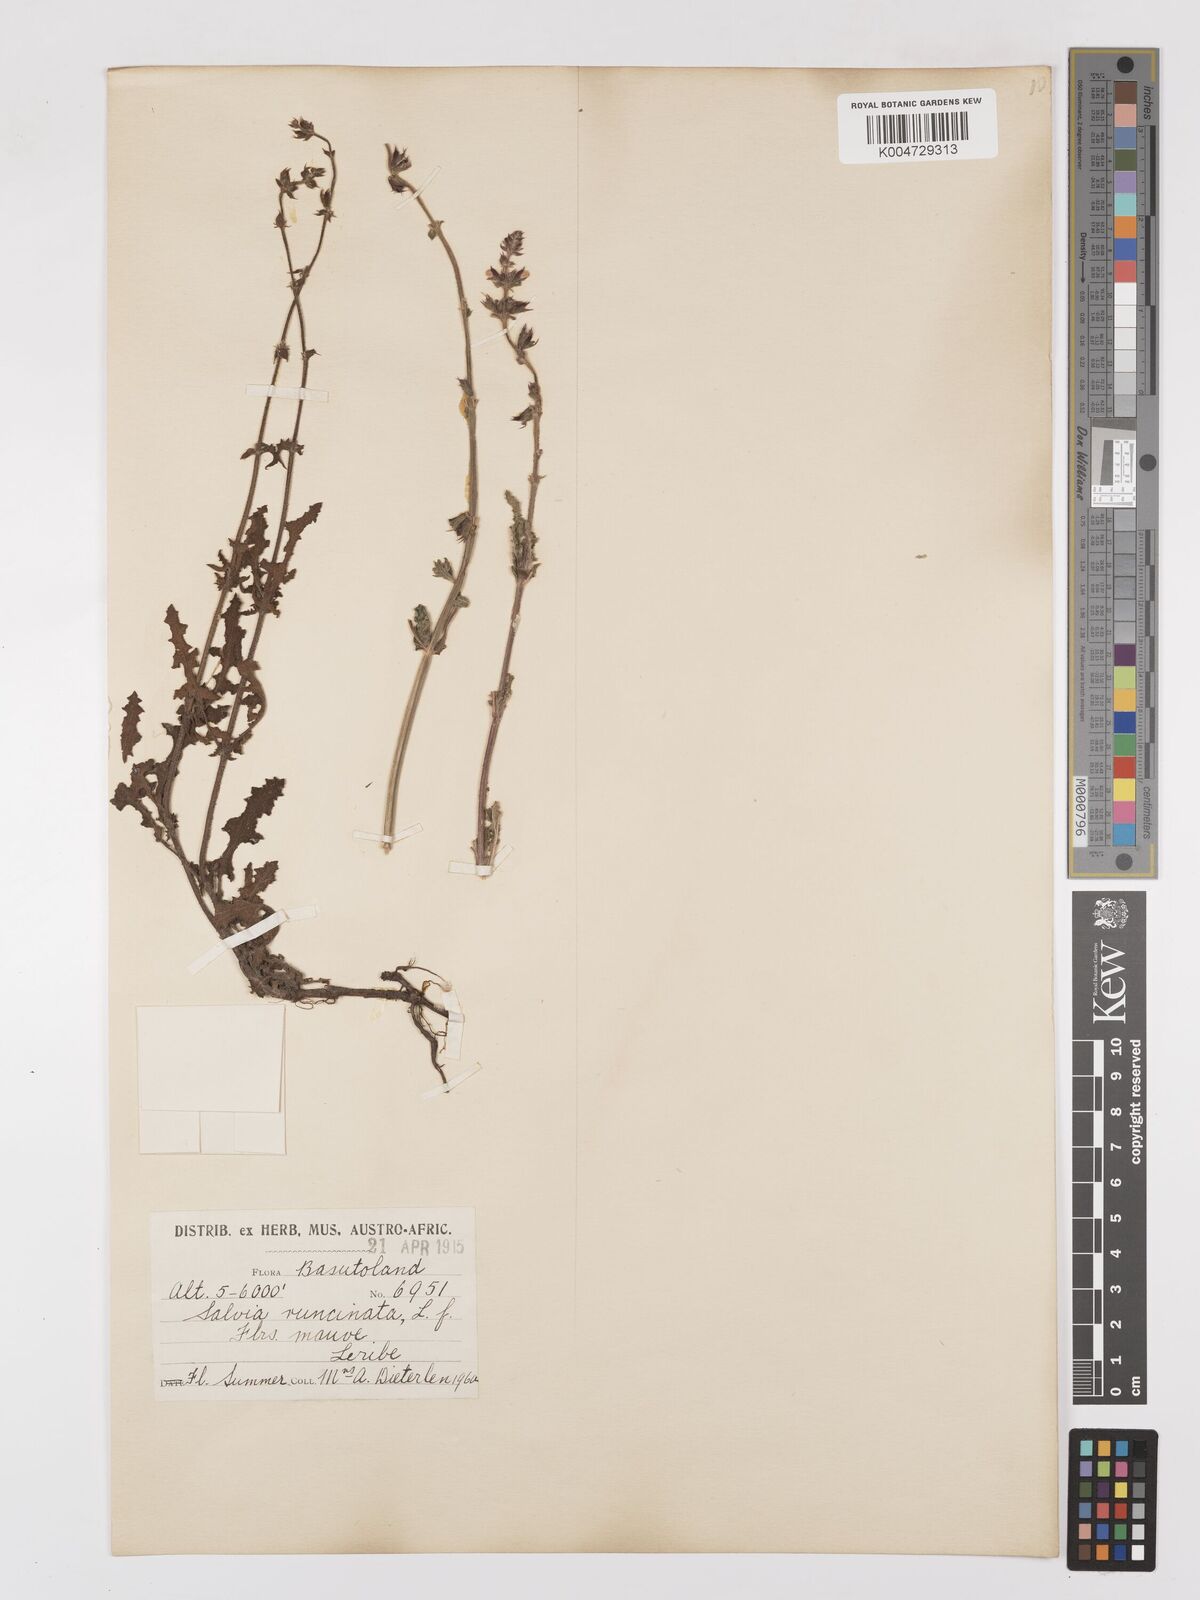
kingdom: Plantae
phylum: Tracheophyta
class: Magnoliopsida
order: Lamiales
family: Lamiaceae
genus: Salvia
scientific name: Salvia runcinata
